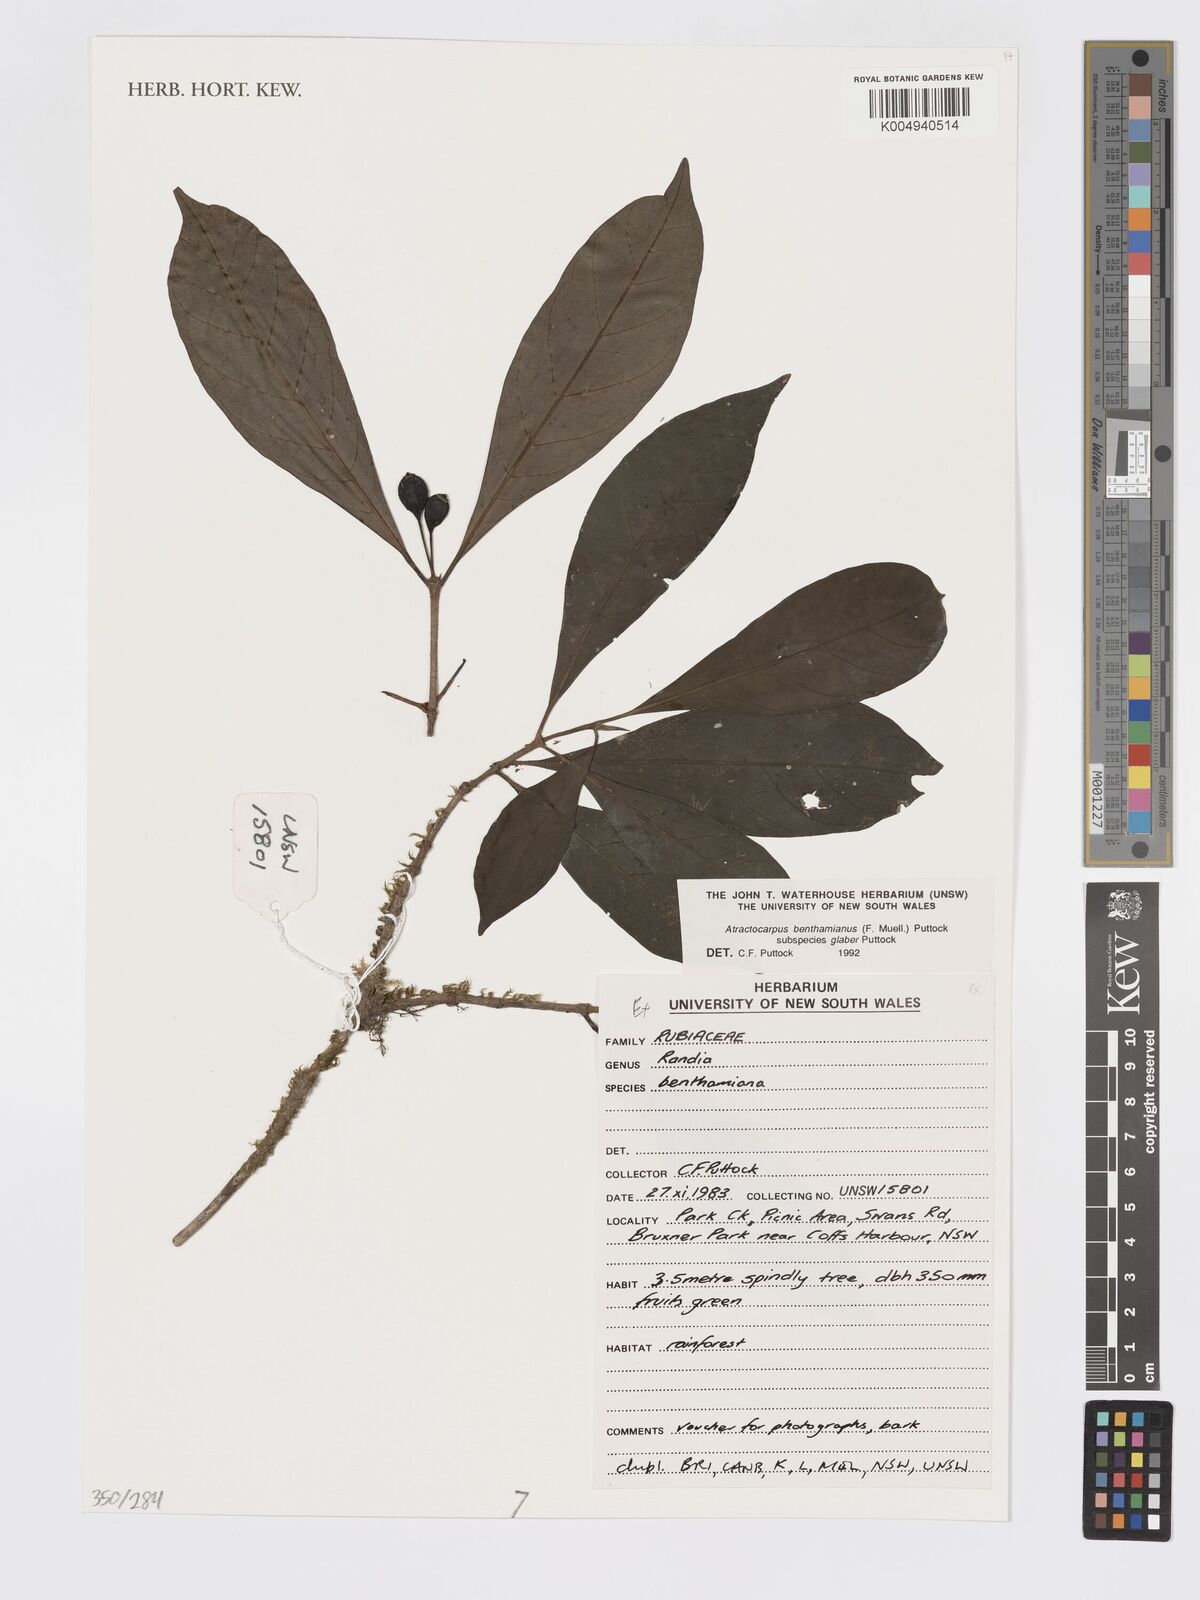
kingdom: Plantae
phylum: Tracheophyta
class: Magnoliopsida
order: Gentianales
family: Rubiaceae
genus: Atractocarpus
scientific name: Atractocarpus benthamianus
